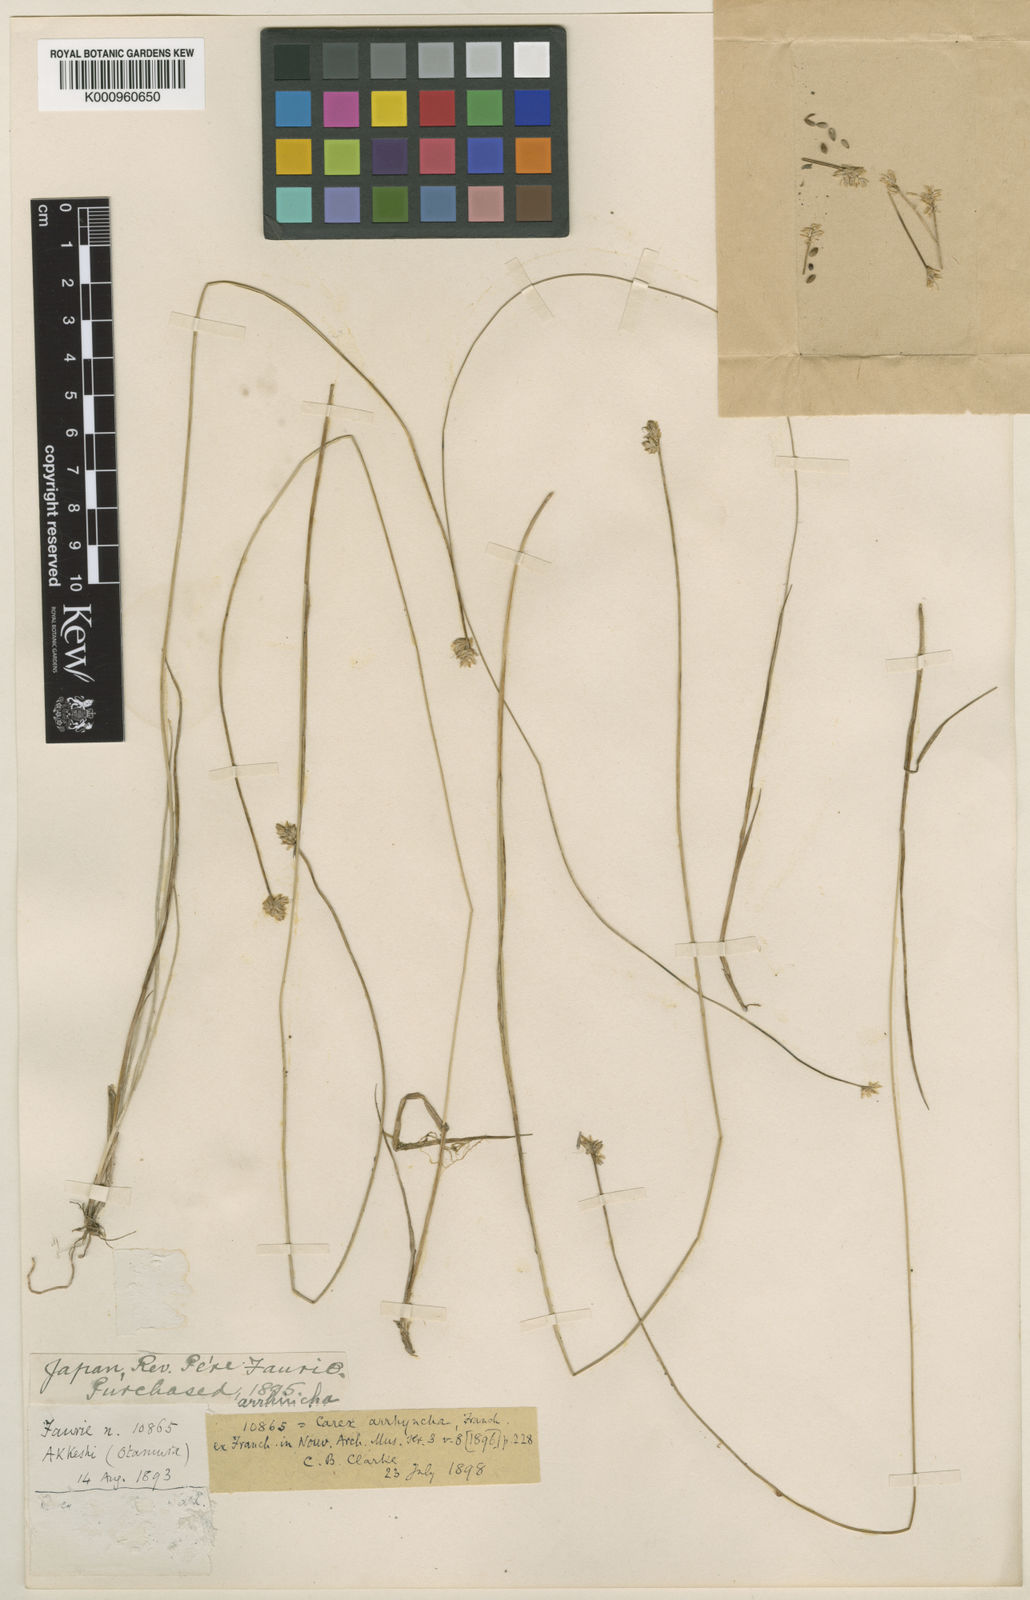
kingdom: Plantae
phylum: Tracheophyta
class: Liliopsida
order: Poales
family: Cyperaceae
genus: Carex
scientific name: Carex tenuiflora
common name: Sparse-flowered sedge
